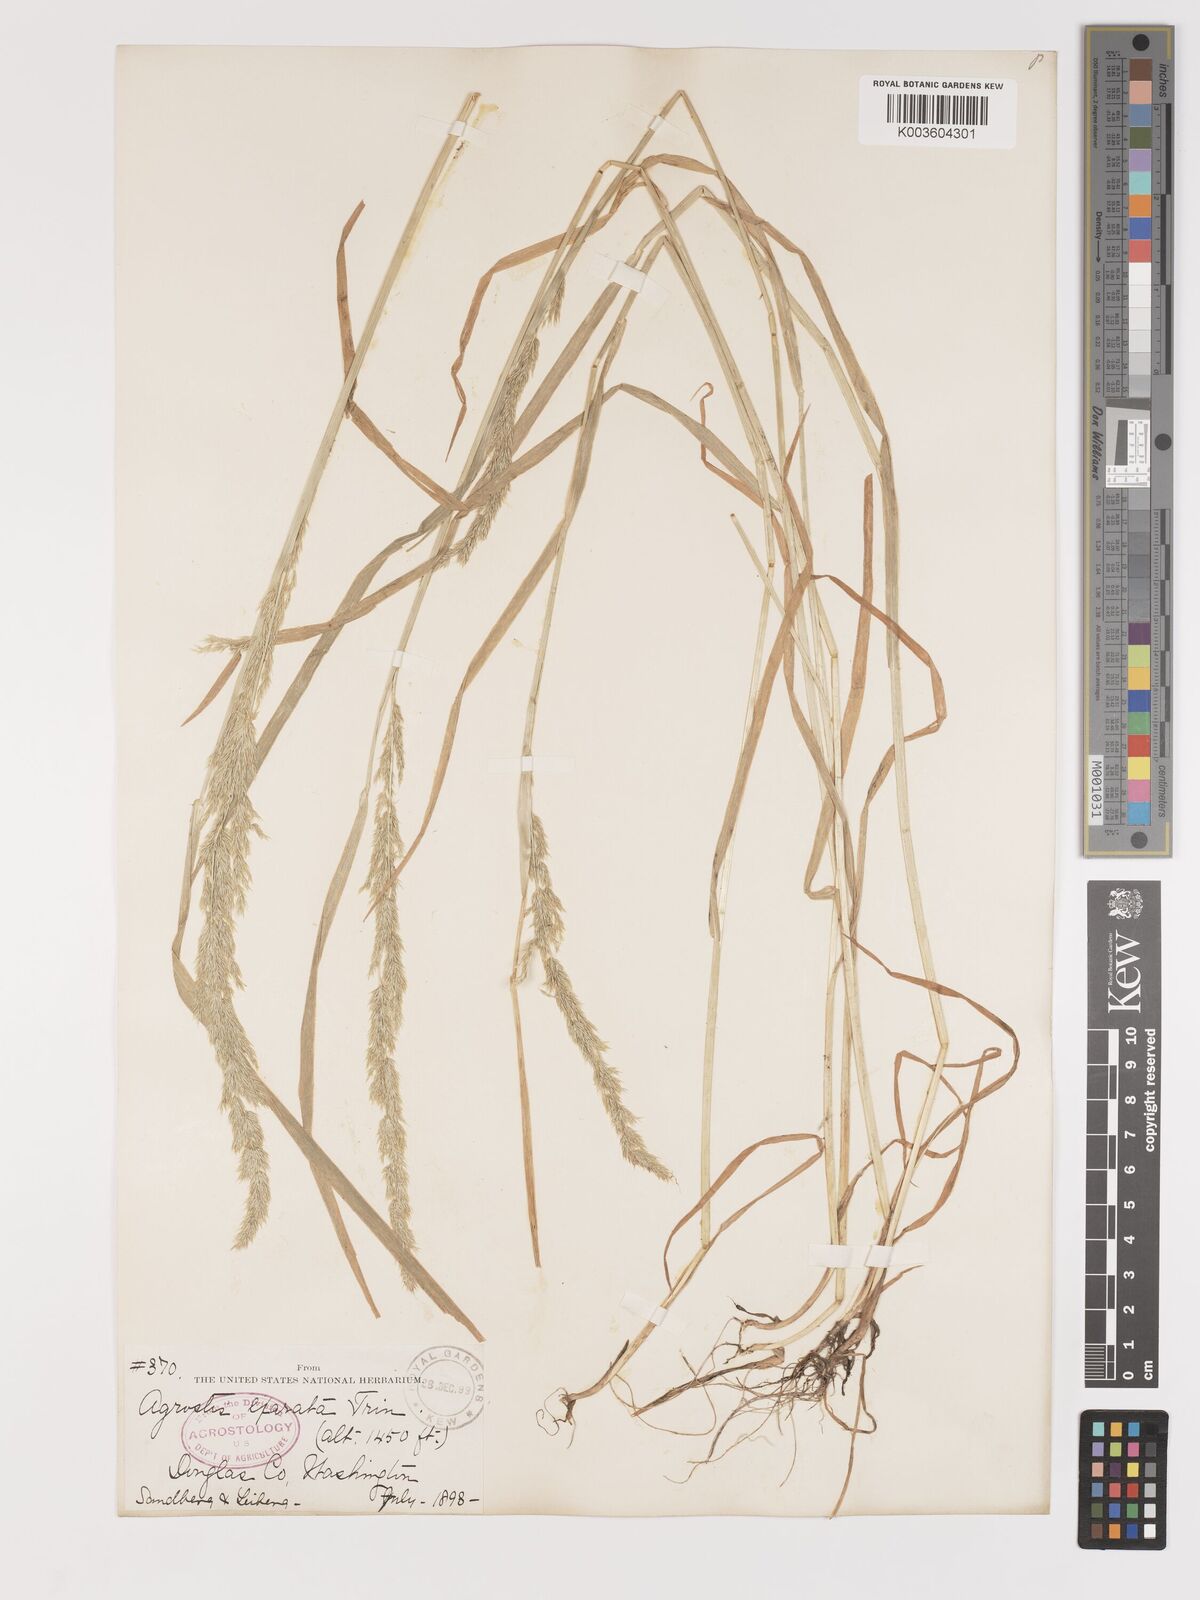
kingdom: Plantae
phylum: Tracheophyta
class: Liliopsida
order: Poales
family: Poaceae
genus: Agrostis
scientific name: Agrostis exarata
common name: Spike bent
